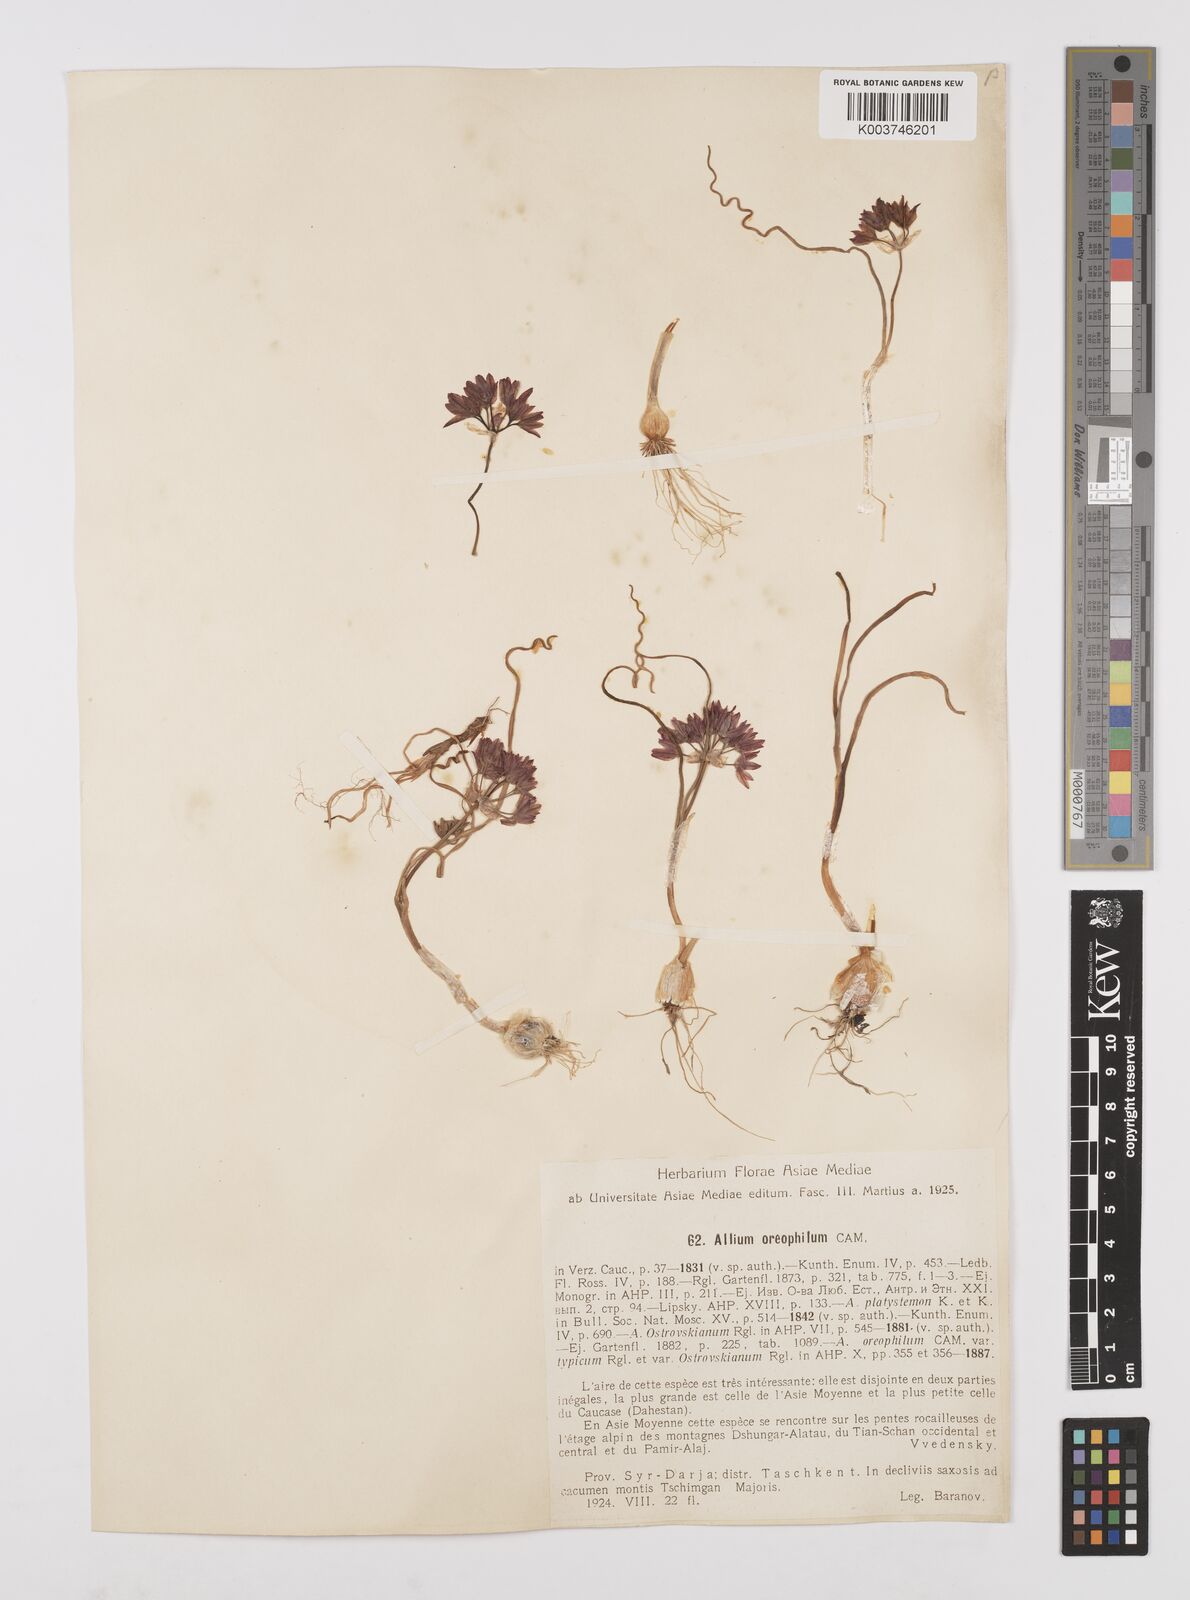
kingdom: Plantae
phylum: Tracheophyta
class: Liliopsida
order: Asparagales
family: Amaryllidaceae
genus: Allium
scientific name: Allium oreophilum
